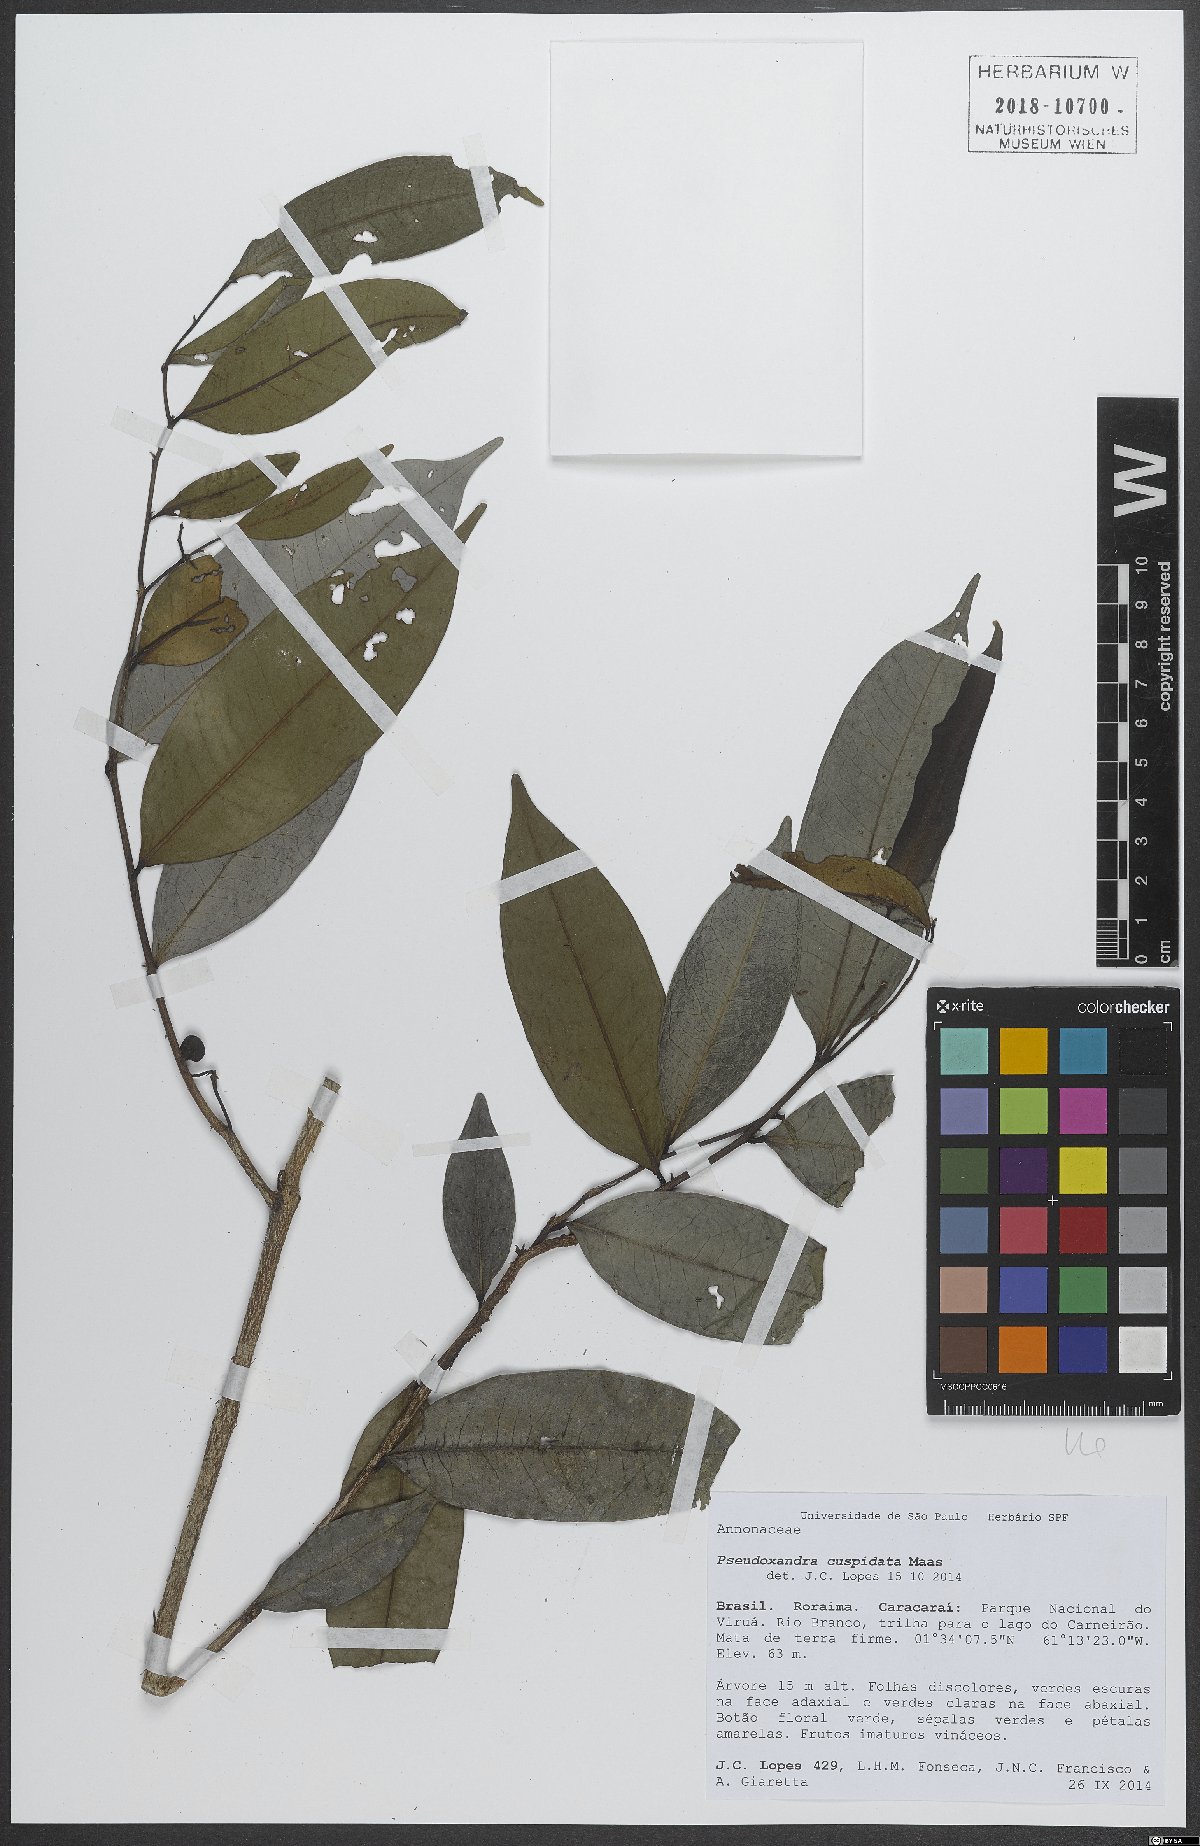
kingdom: Plantae
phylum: Tracheophyta
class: Magnoliopsida
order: Magnoliales
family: Annonaceae
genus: Pseudoxandra
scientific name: Pseudoxandra cuspidata
